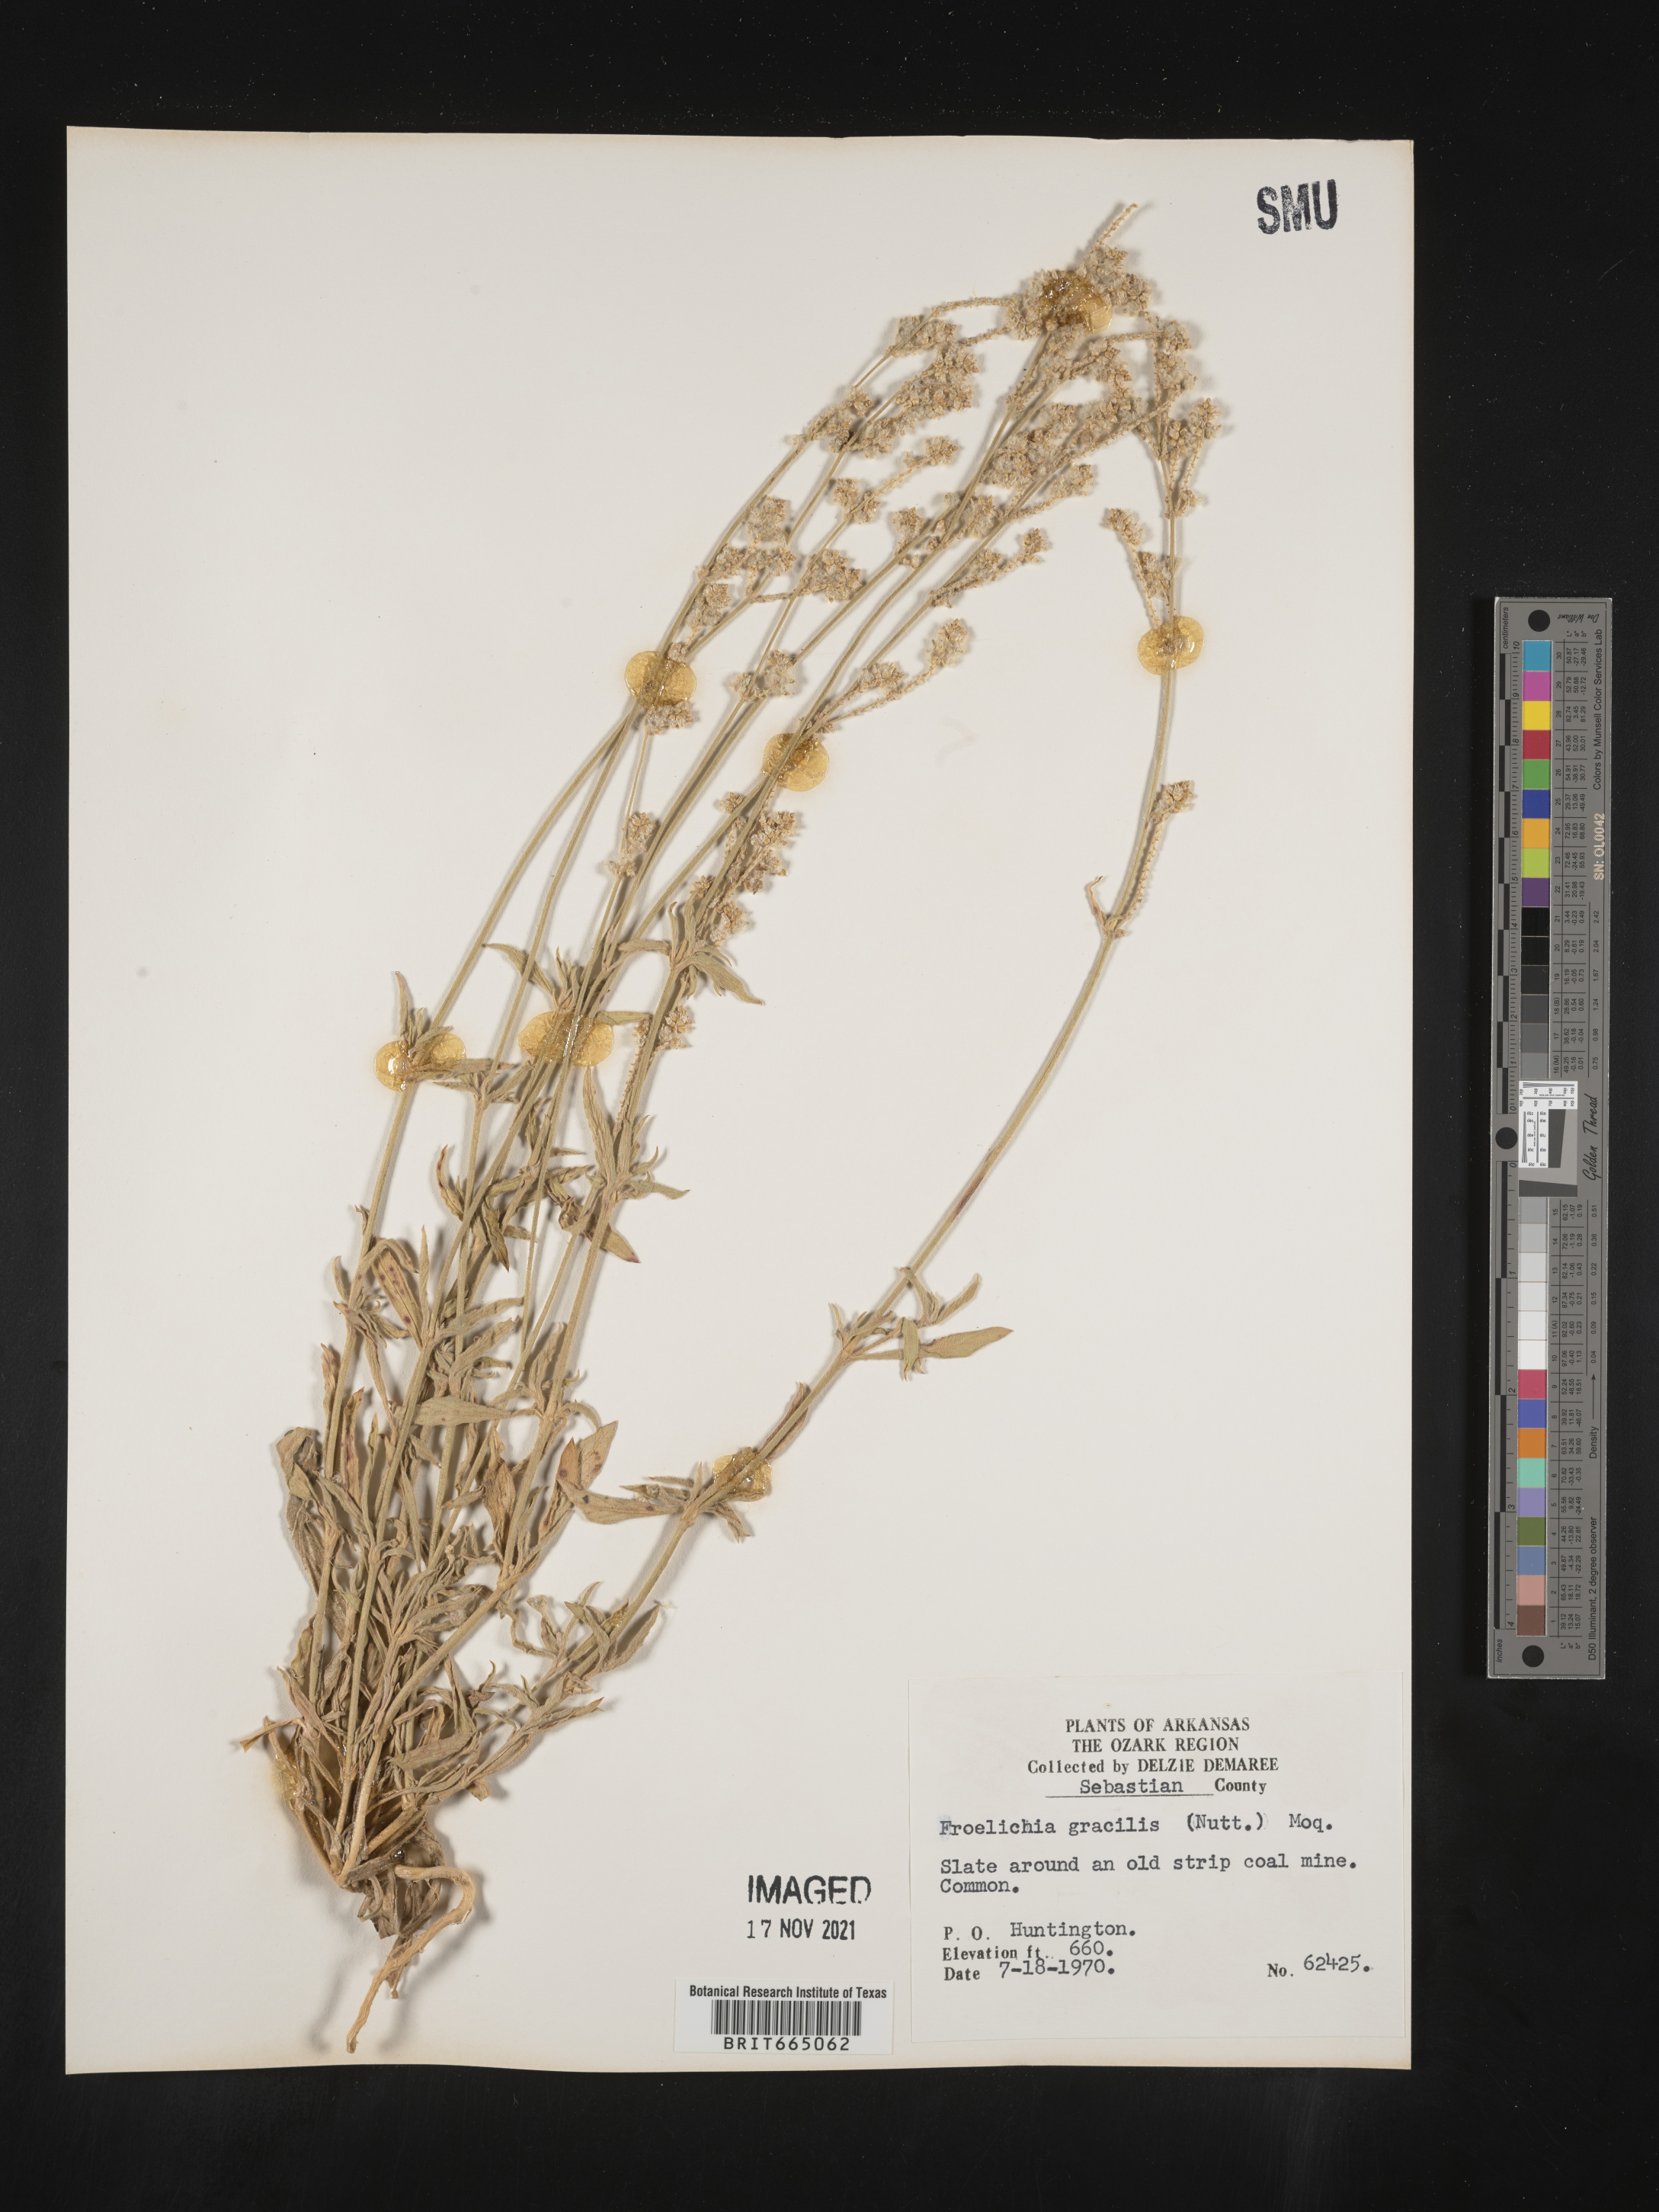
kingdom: Plantae
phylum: Tracheophyta
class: Magnoliopsida
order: Caryophyllales
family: Amaranthaceae
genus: Froelichia
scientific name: Froelichia gracilis
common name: Slender cottonweed
